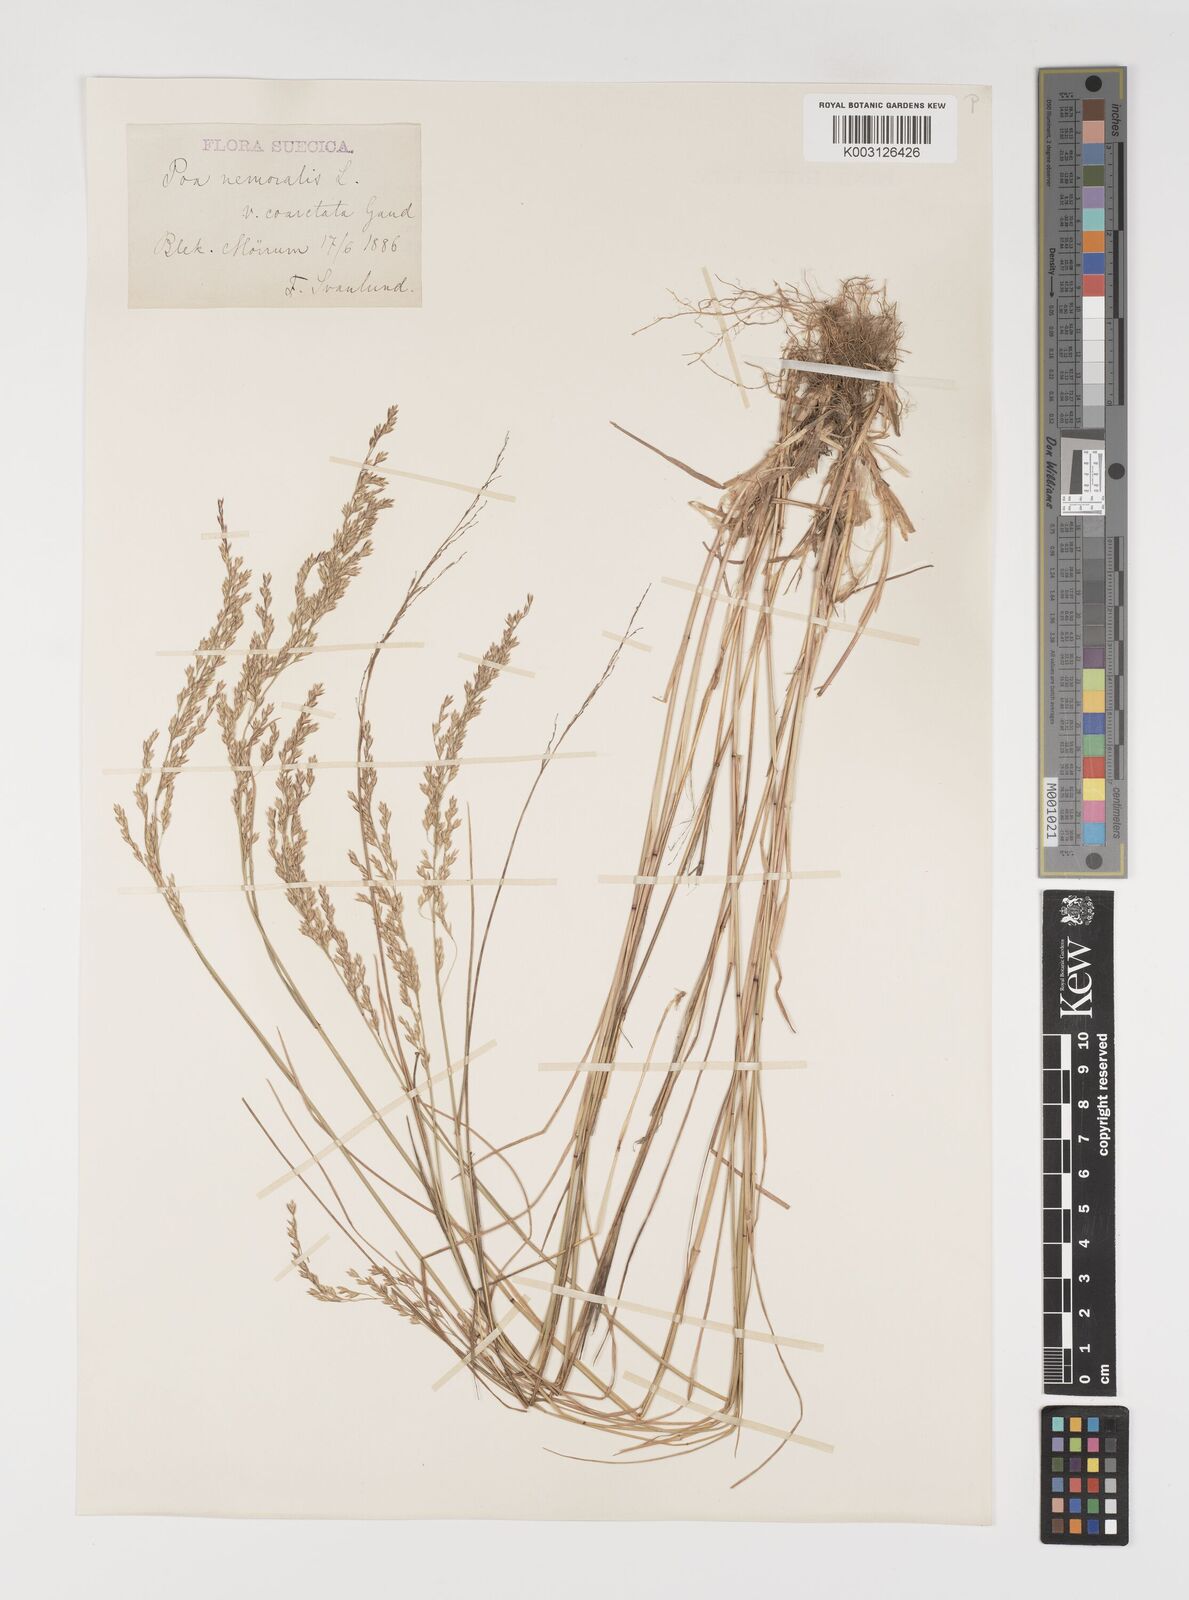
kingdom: Plantae
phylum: Tracheophyta
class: Liliopsida
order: Poales
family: Poaceae
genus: Poa
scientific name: Poa nemoralis
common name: Wood bluegrass
